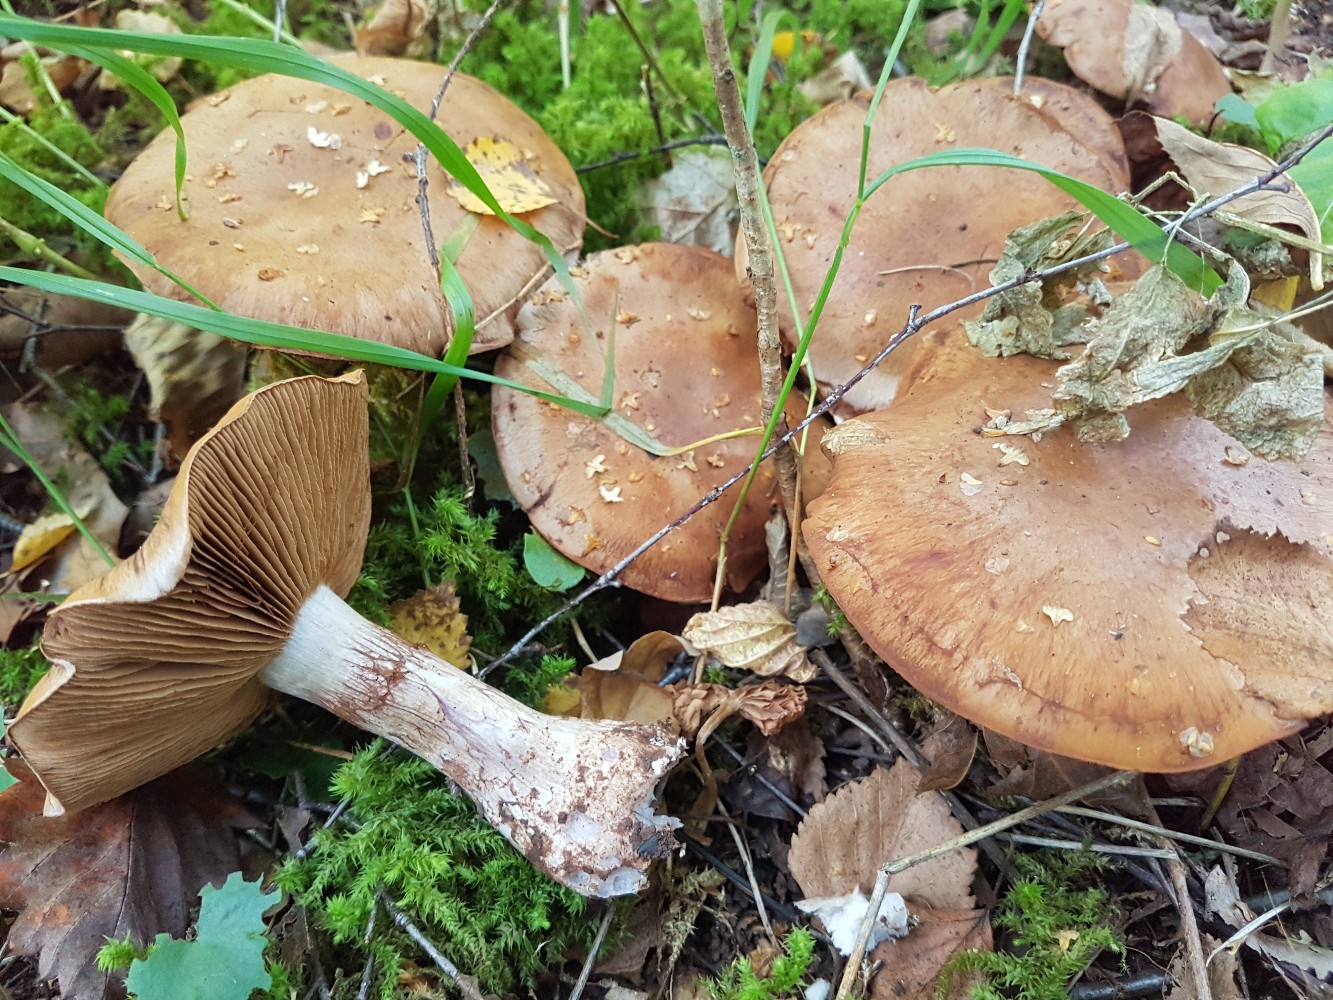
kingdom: Fungi
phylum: Basidiomycota
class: Agaricomycetes
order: Agaricales
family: Cortinariaceae
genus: Cortinarius
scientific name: Cortinarius variecolor
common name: violetagtig slørhat
